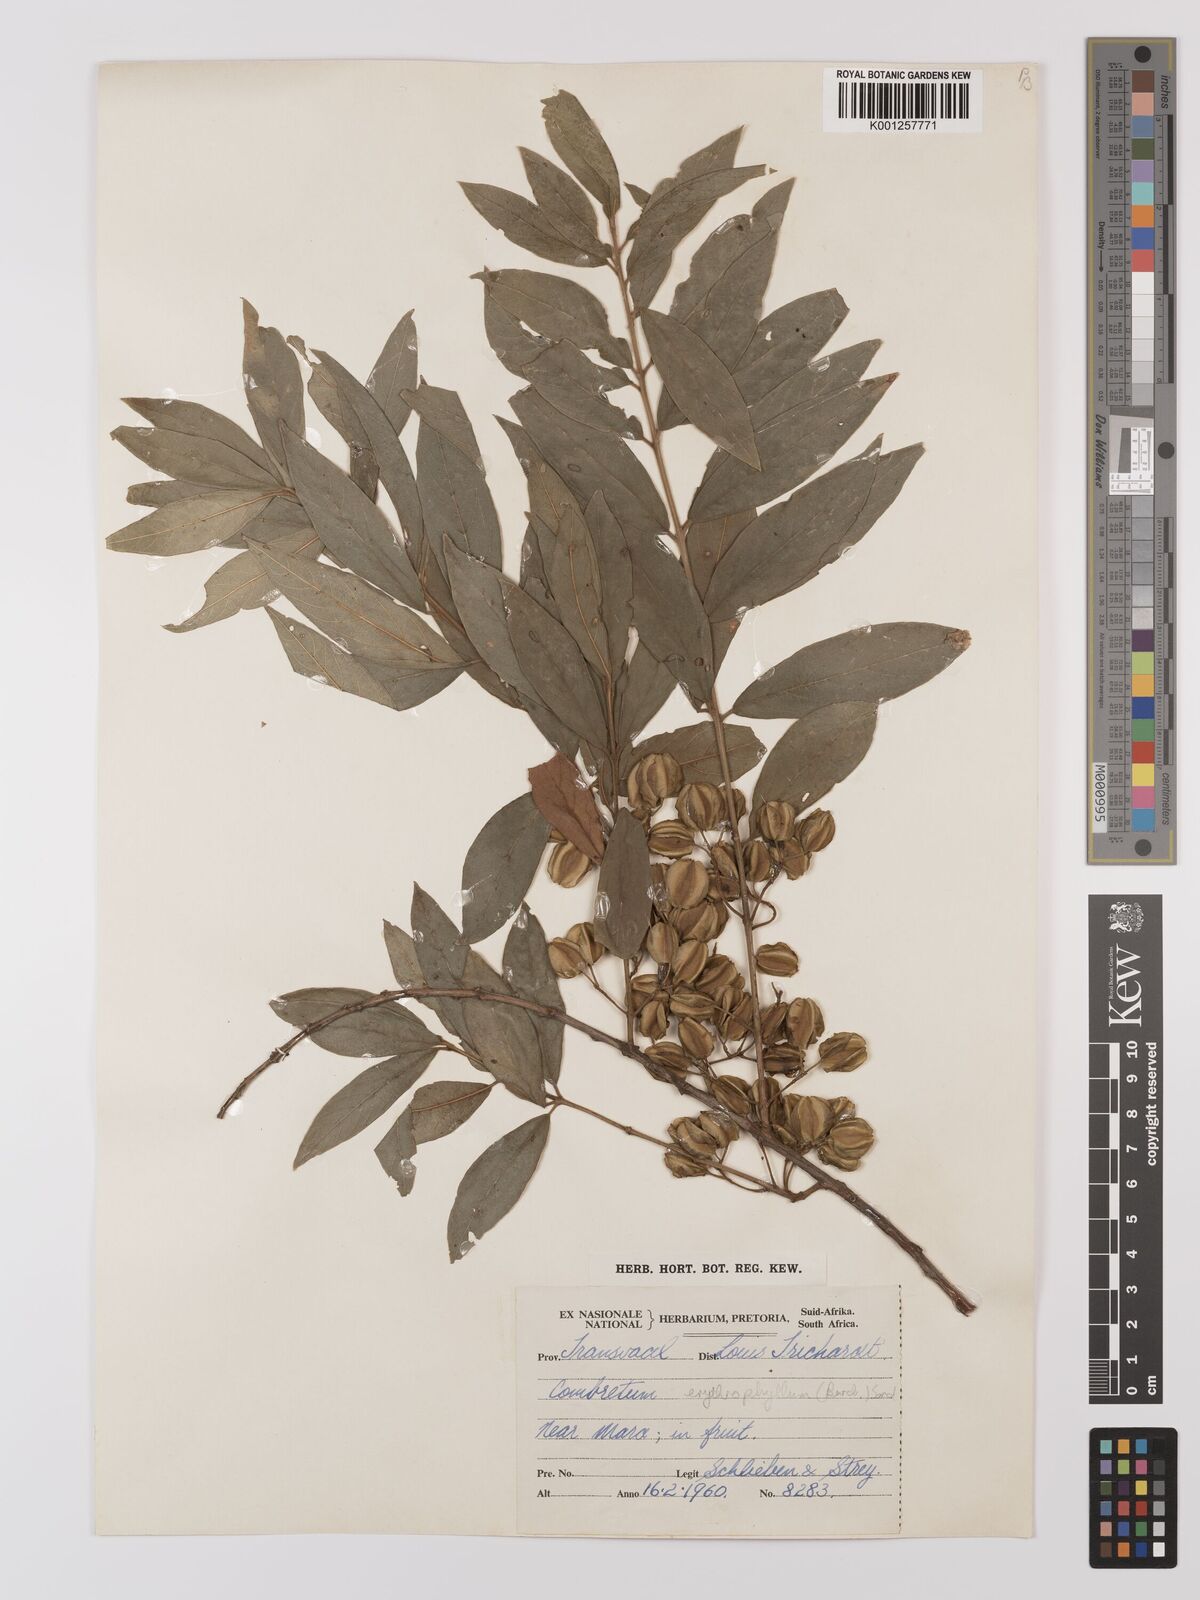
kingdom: Plantae
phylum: Tracheophyta
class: Magnoliopsida
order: Myrtales
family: Combretaceae
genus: Combretum
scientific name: Combretum erythrophyllum
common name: Bush-willow
